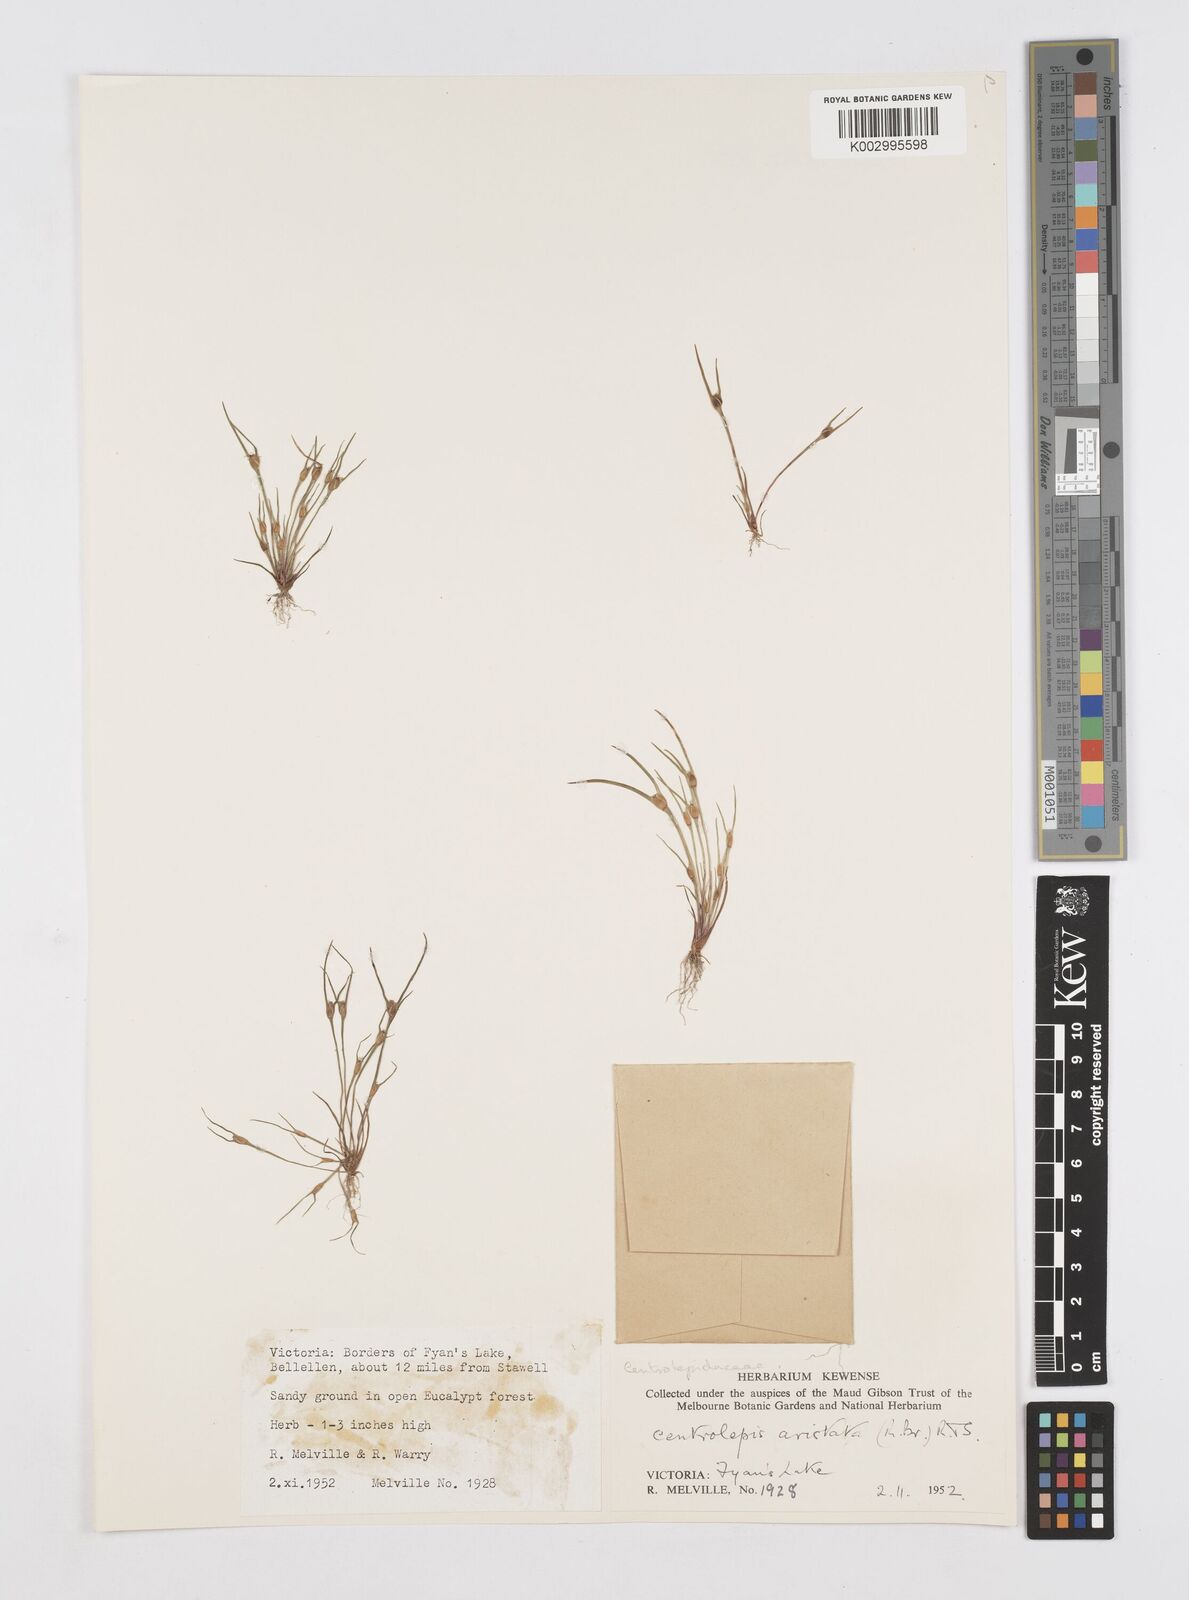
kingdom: Plantae
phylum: Tracheophyta
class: Liliopsida
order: Poales
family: Restionaceae
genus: Centrolepis
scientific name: Centrolepis aristata
